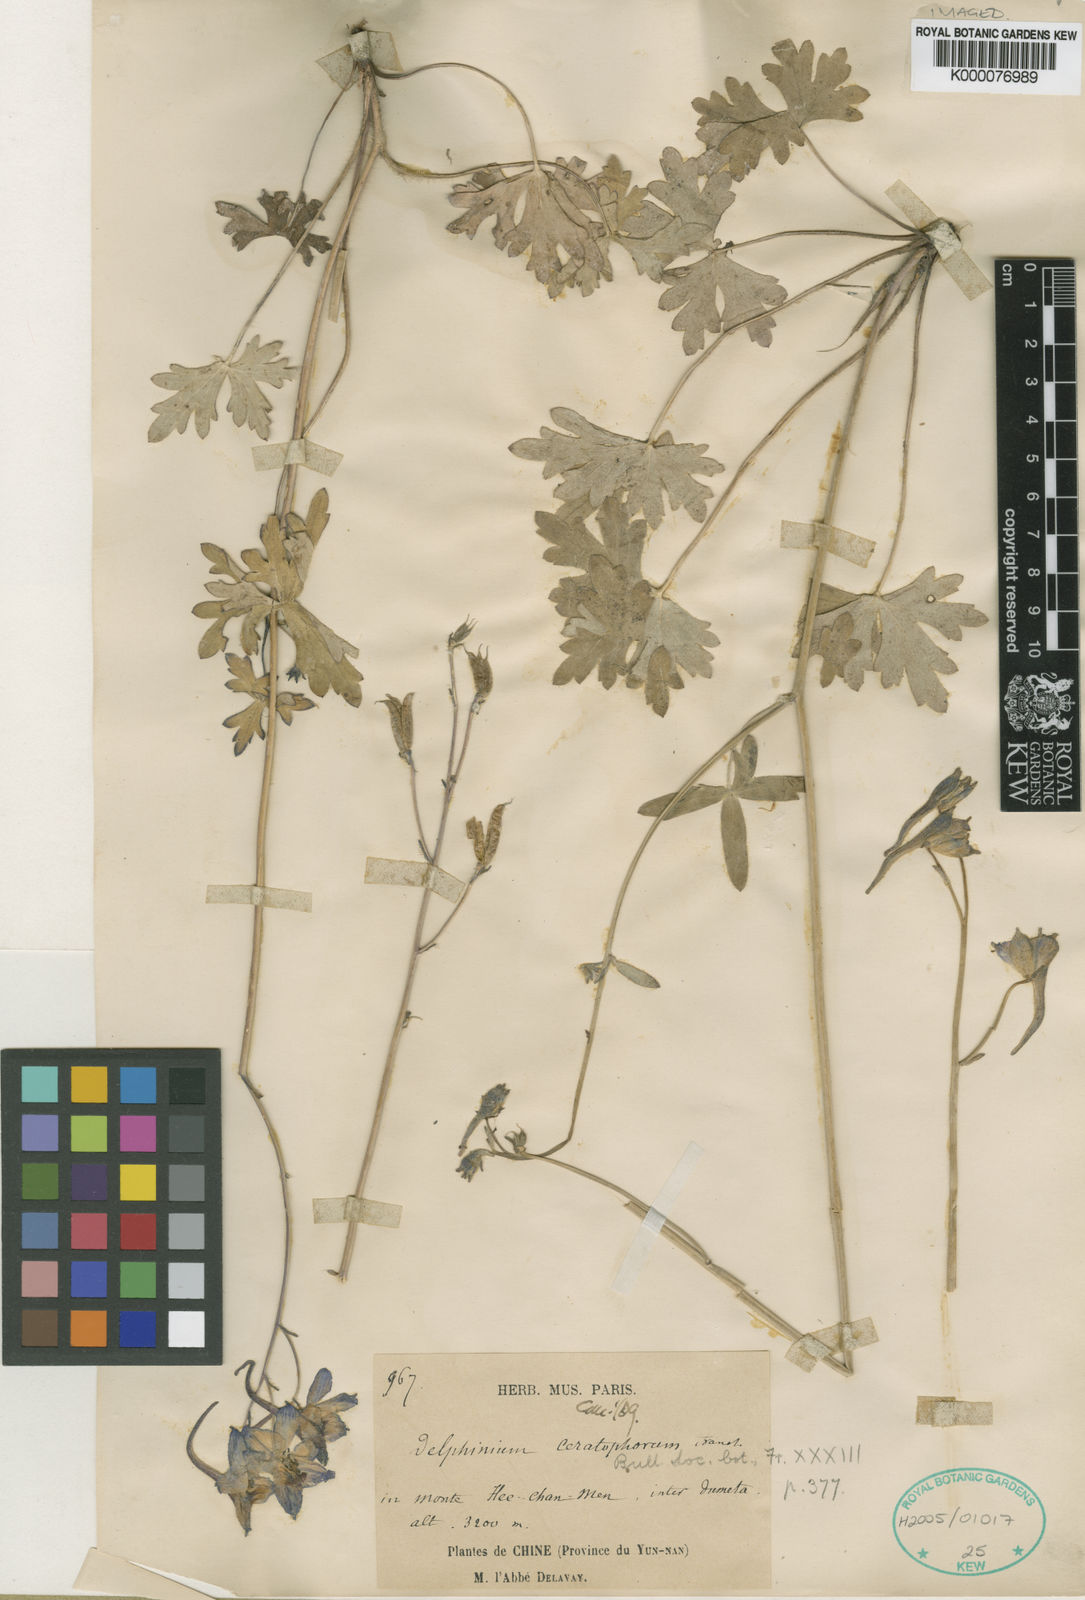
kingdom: Plantae
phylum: Tracheophyta
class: Magnoliopsida
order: Ranunculales
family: Ranunculaceae
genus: Delphinium
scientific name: Delphinium ceratophorum
